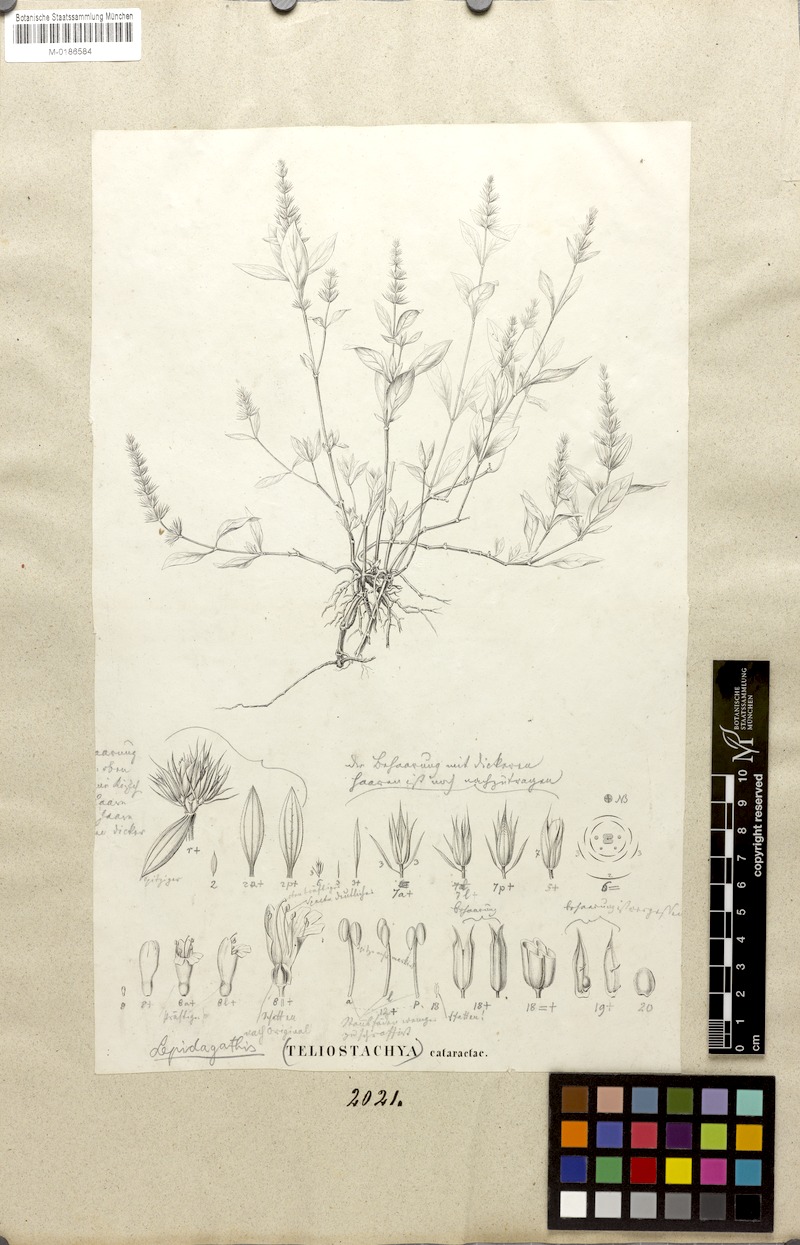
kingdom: Plantae
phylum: Tracheophyta
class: Magnoliopsida
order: Lamiales
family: Acanthaceae
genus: Lepidagathis
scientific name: Lepidagathis cataractae
